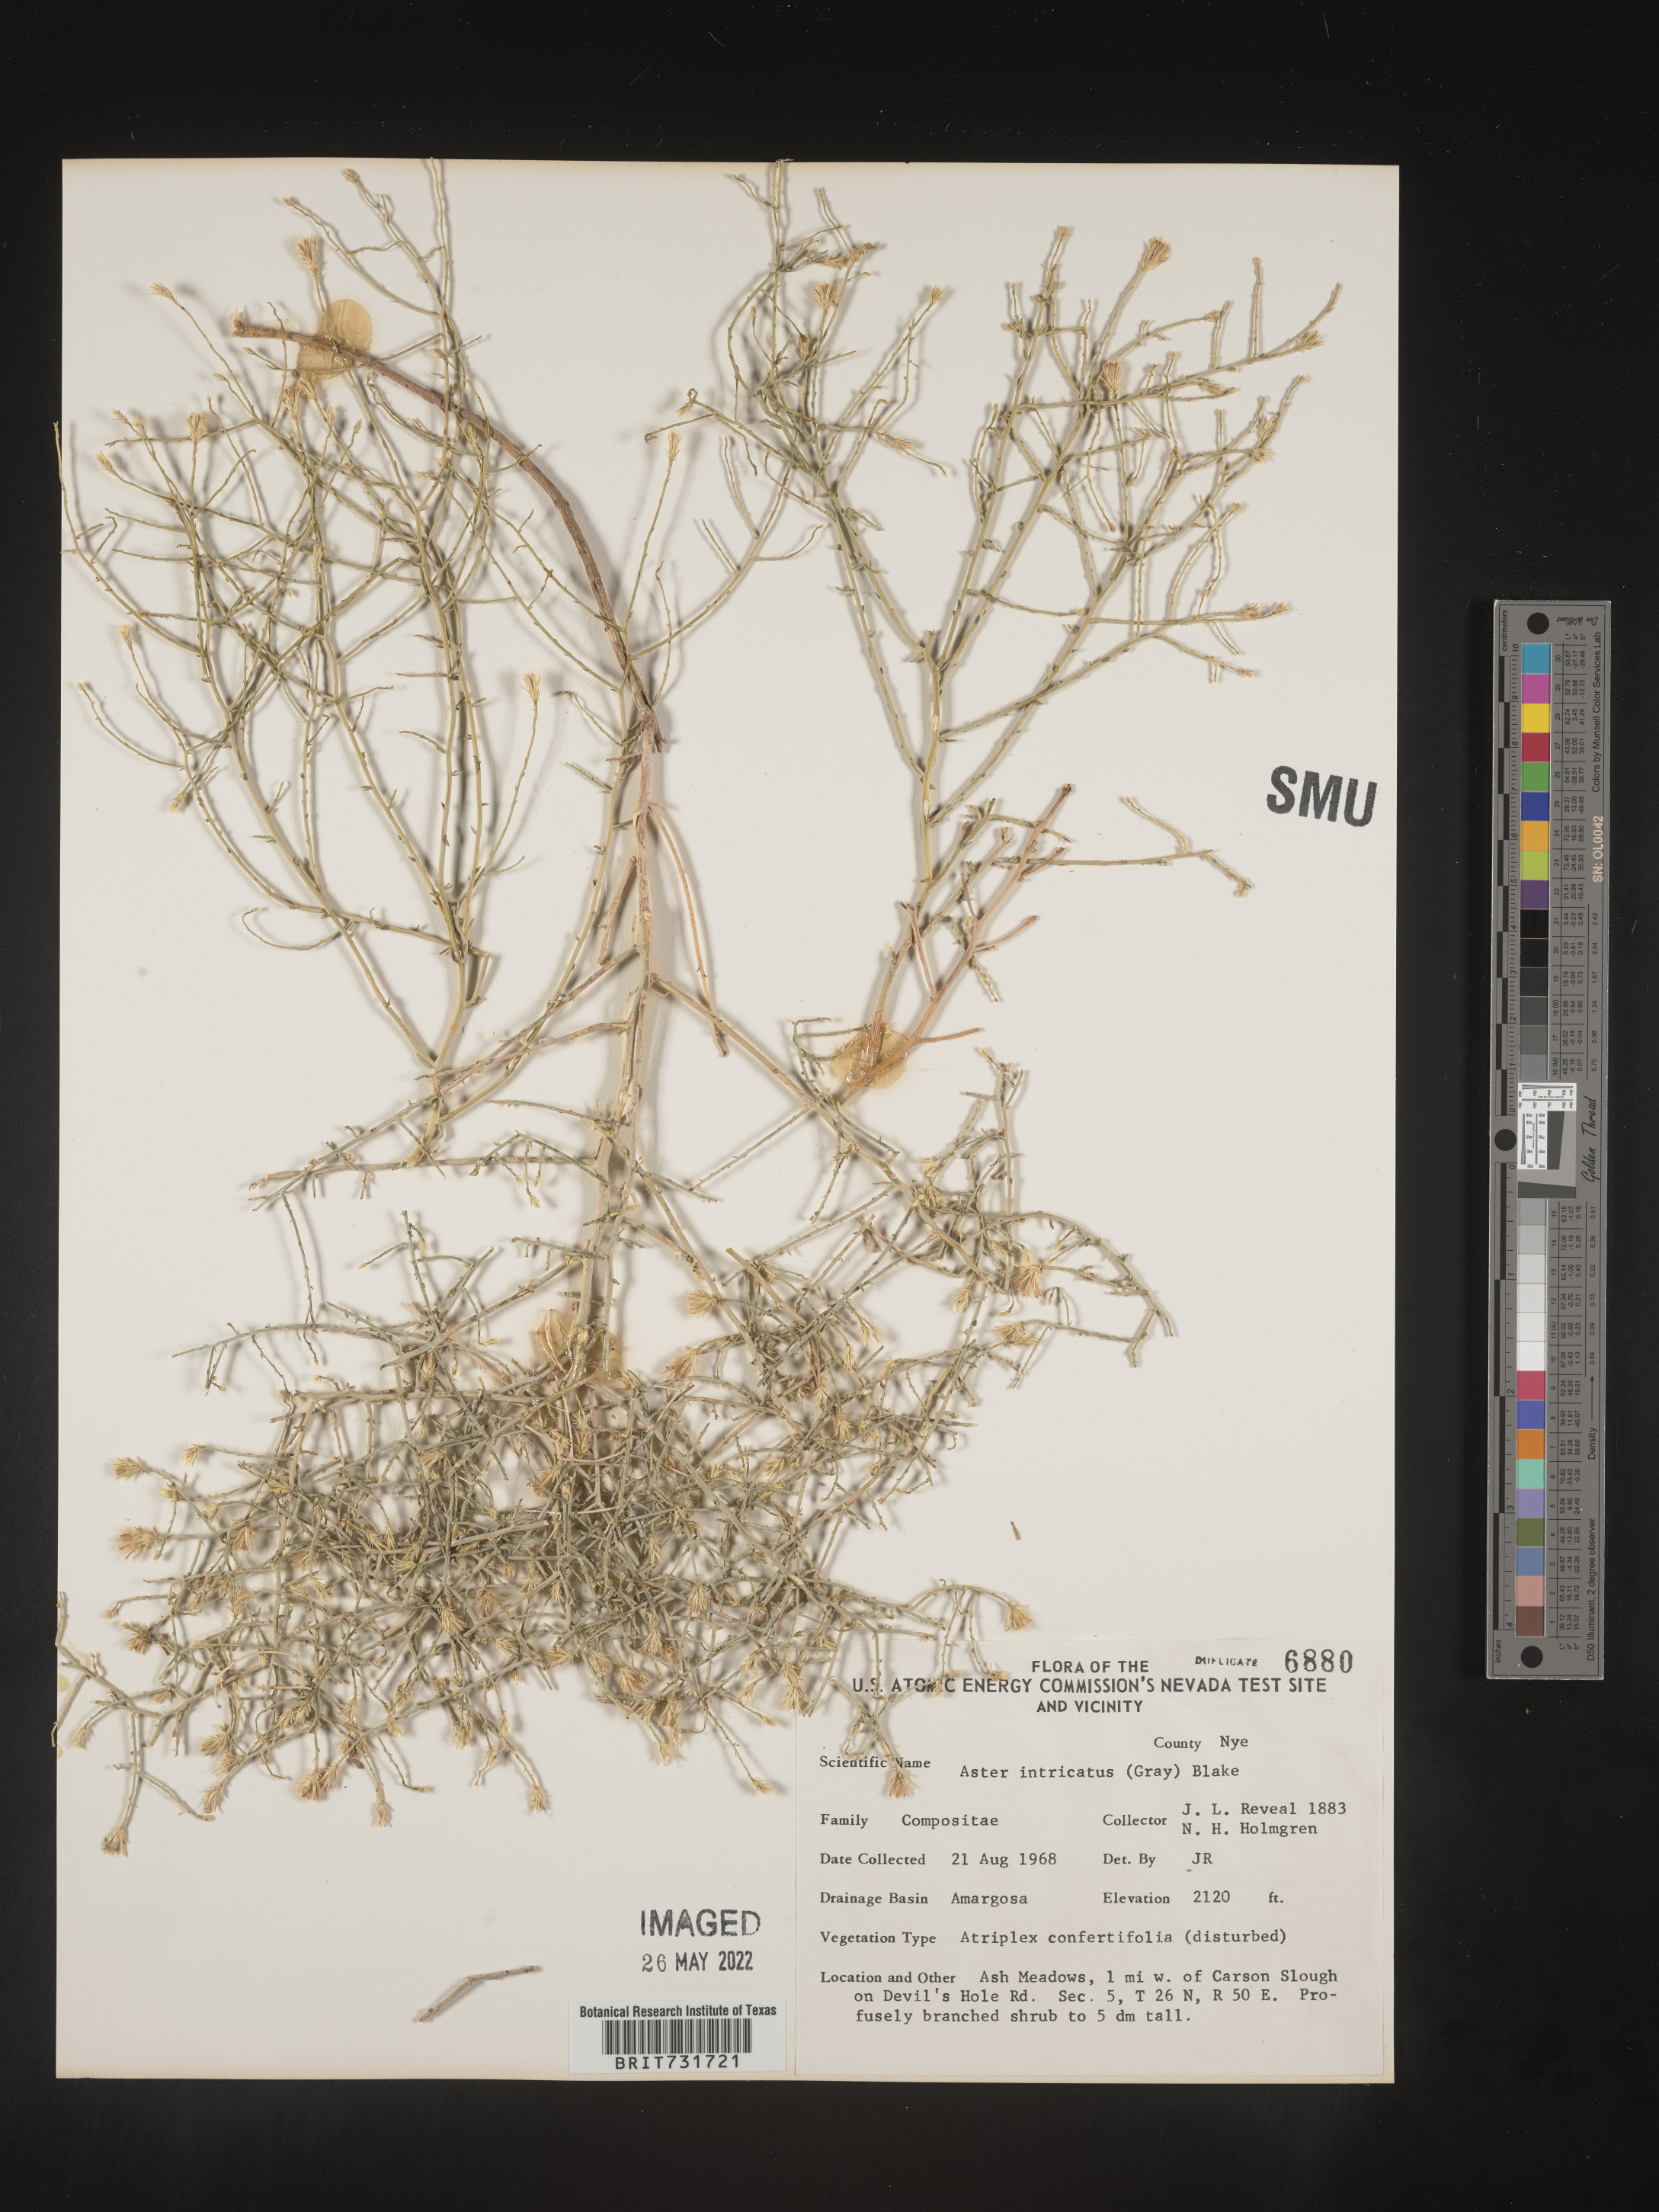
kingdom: Plantae
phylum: Tracheophyta
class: Magnoliopsida
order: Asterales
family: Asteraceae
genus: Leucosyris
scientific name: Leucosyris carnosa
